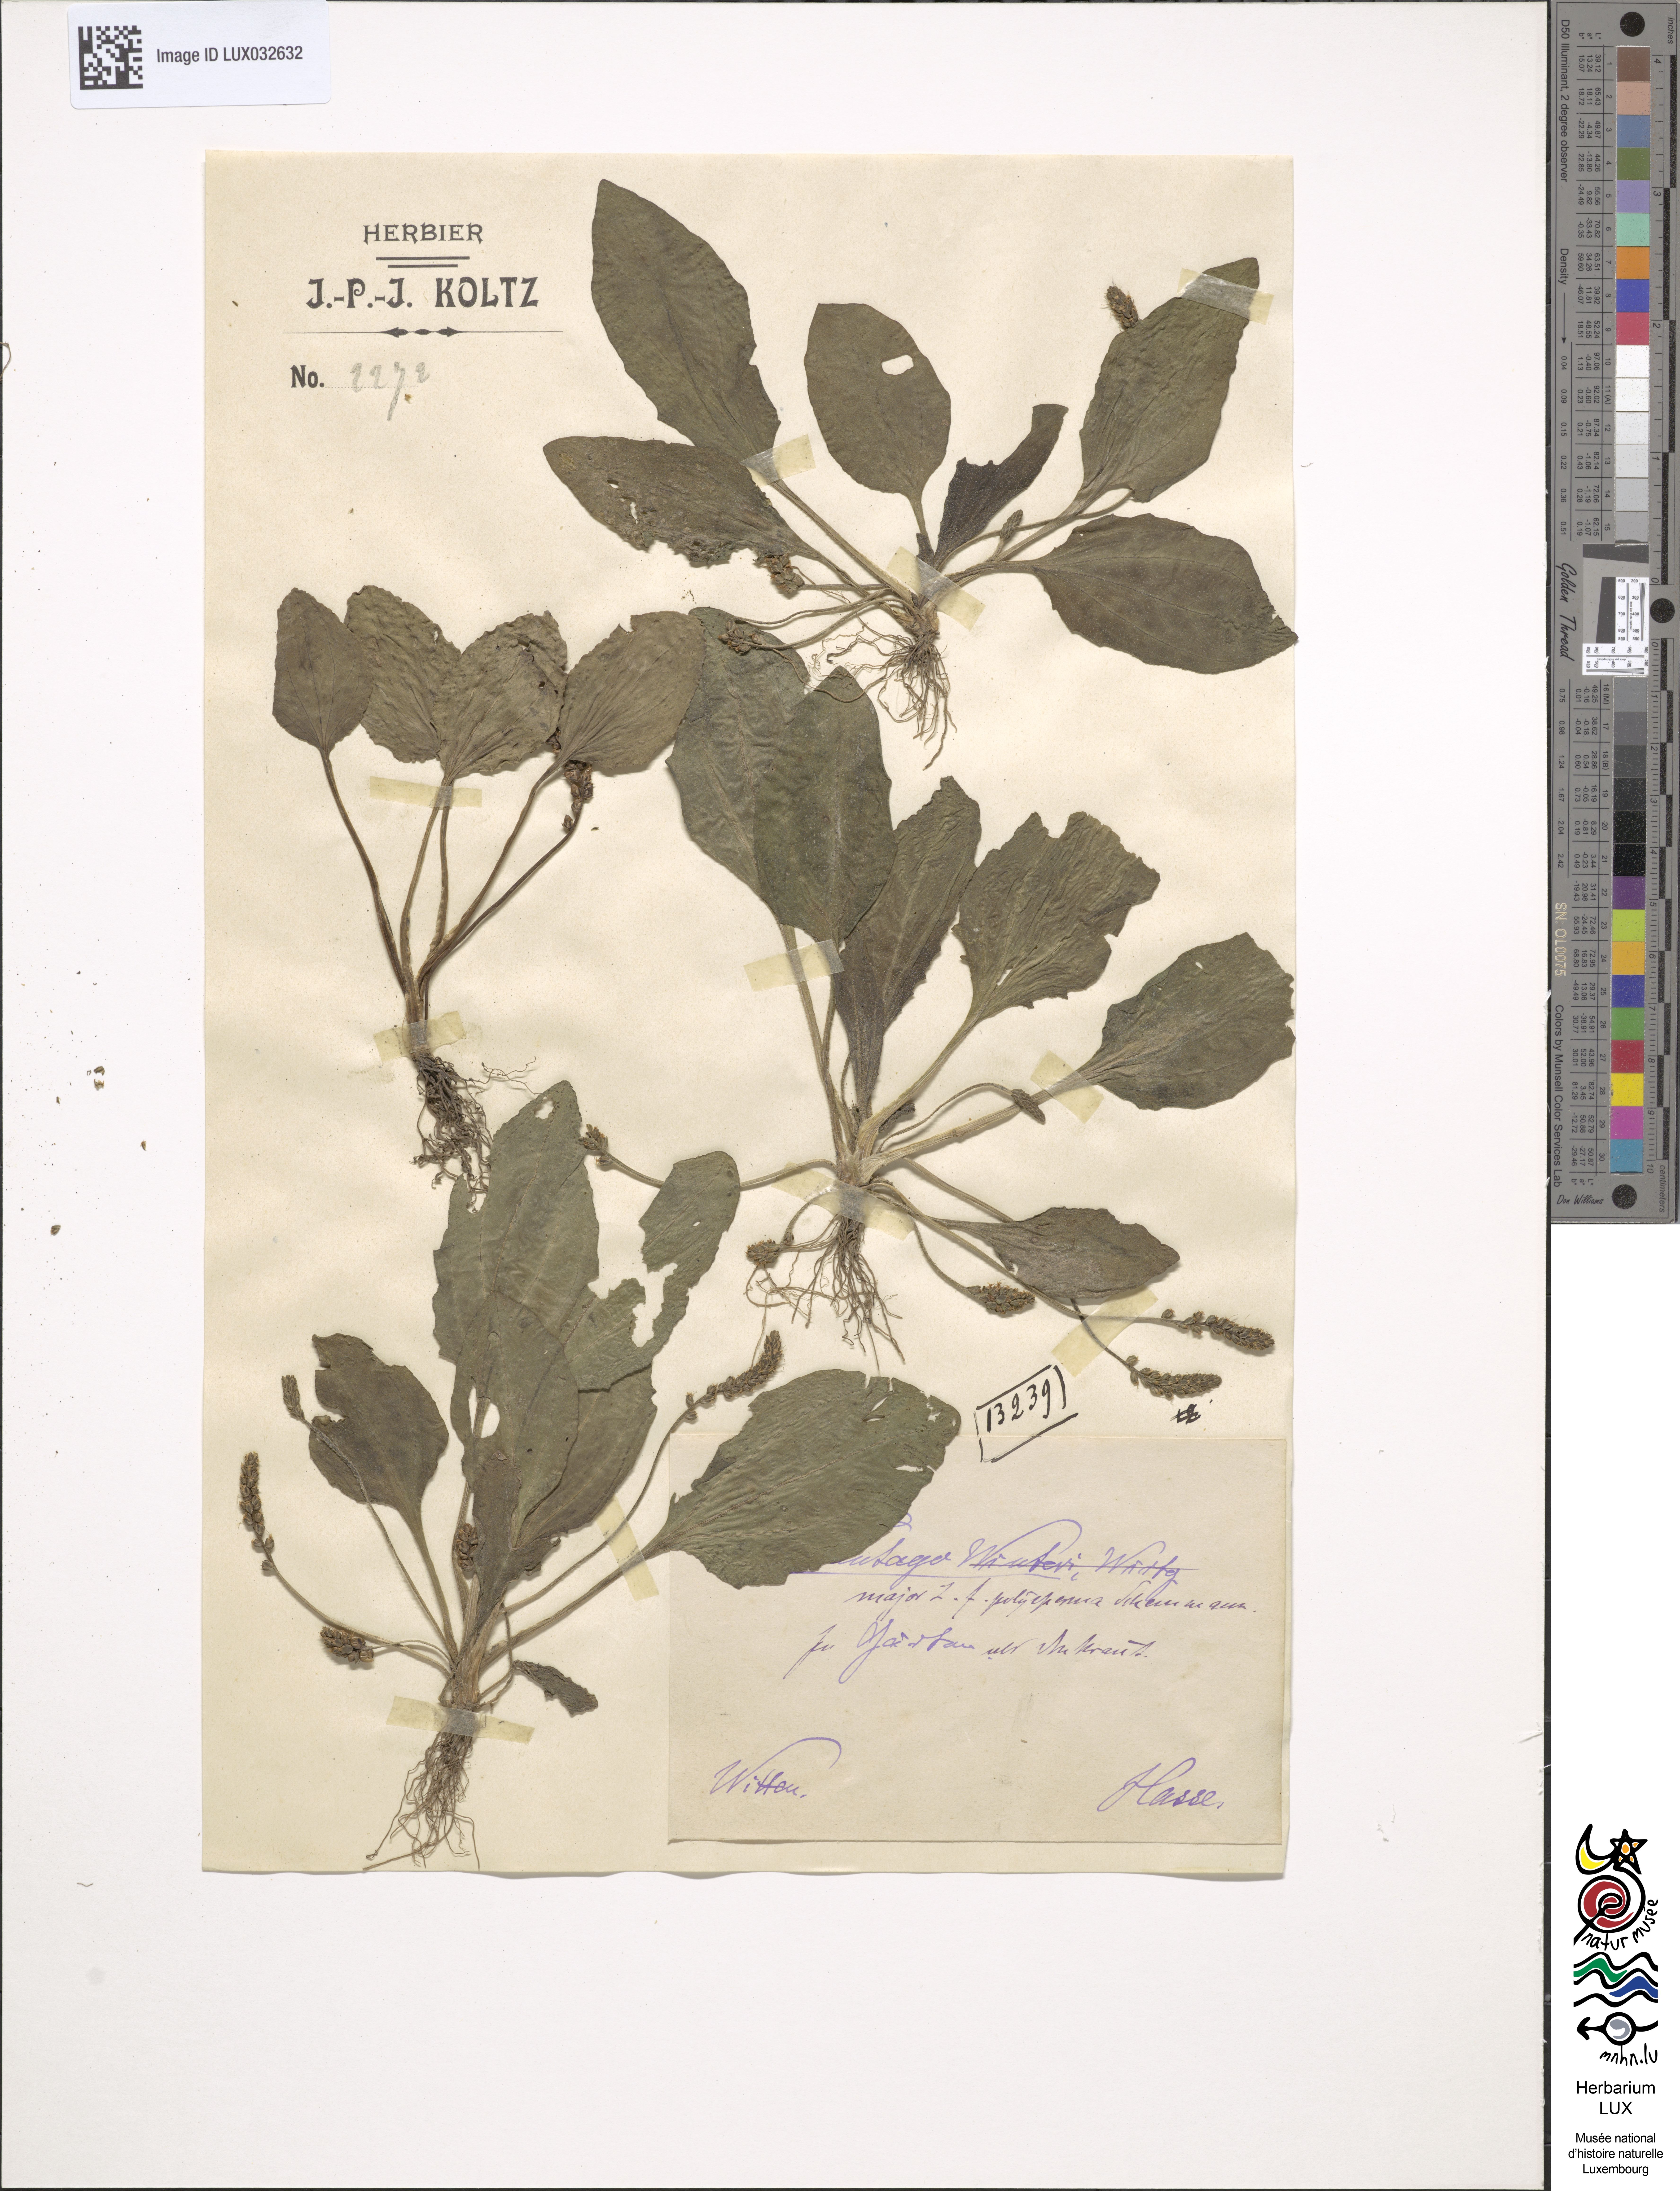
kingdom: Plantae
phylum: Tracheophyta
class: Magnoliopsida
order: Lamiales
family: Plantaginaceae
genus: Plantago
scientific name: Plantago major
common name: Common plantain
